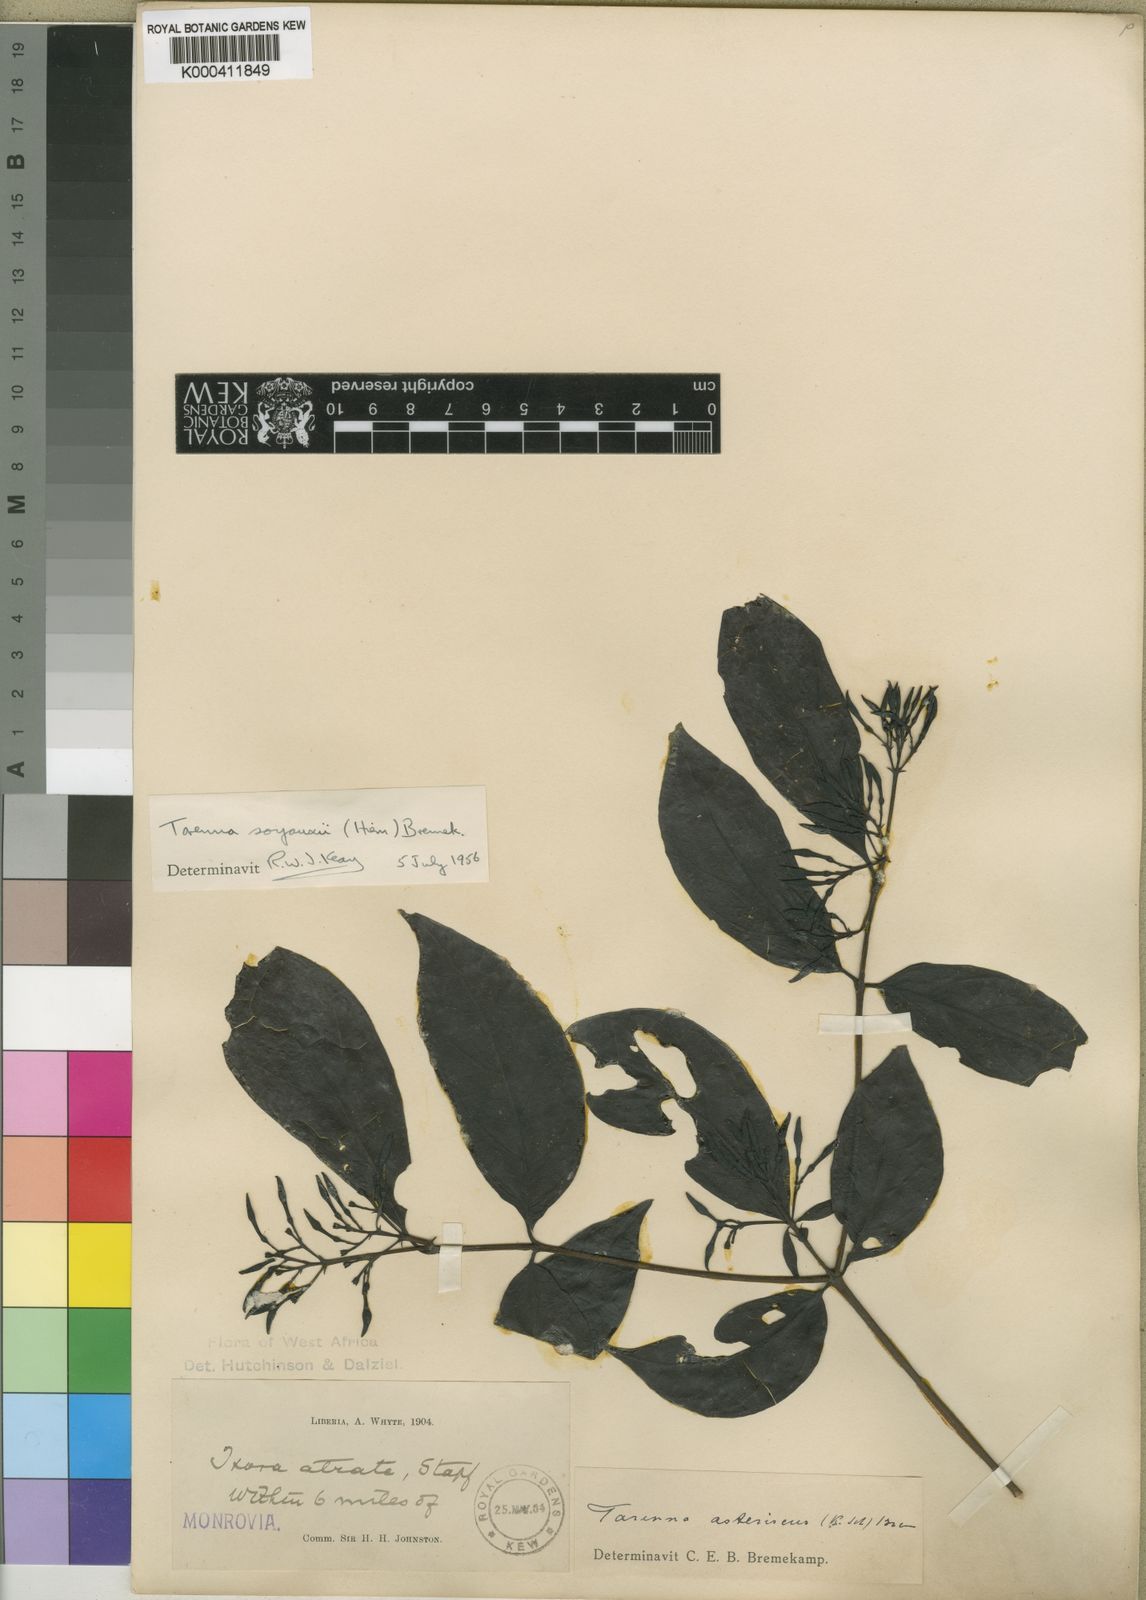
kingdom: Plantae
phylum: Tracheophyta
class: Magnoliopsida
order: Gentianales
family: Rubiaceae
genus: Nichallea
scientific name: Nichallea soyauxii
